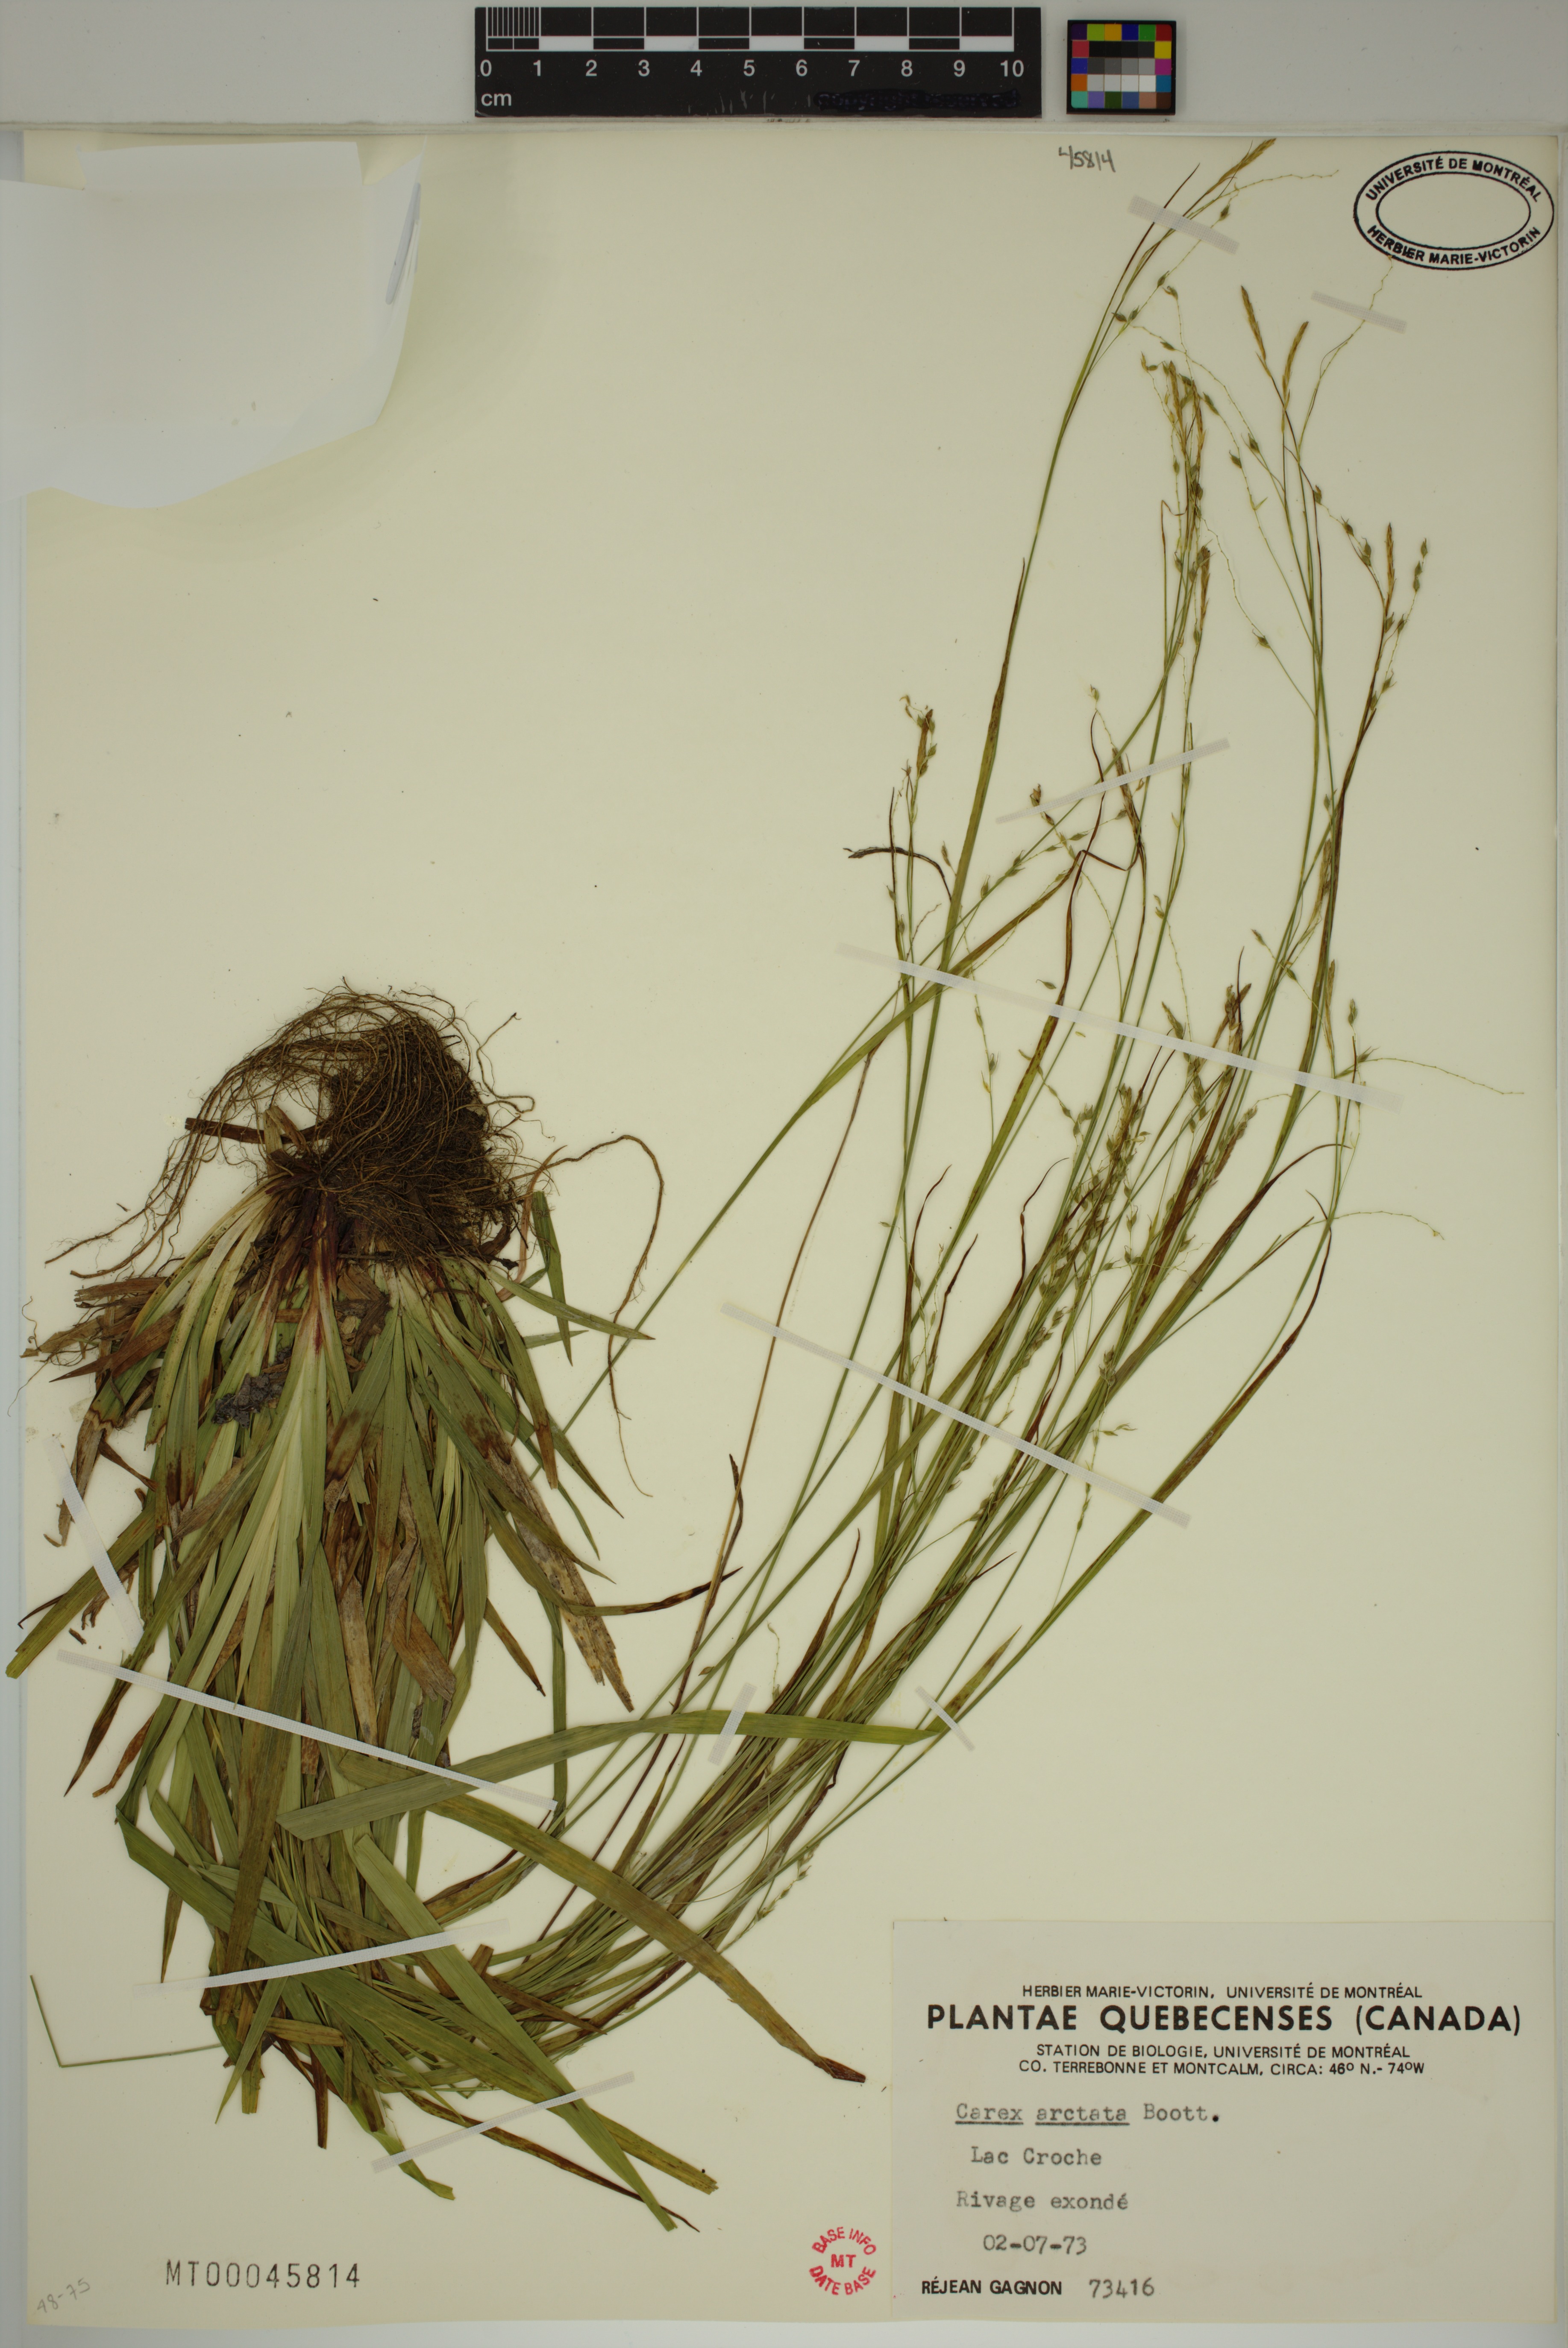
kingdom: Plantae
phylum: Tracheophyta
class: Liliopsida
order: Poales
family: Cyperaceae
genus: Carex
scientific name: Carex arctata
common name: Black sedge
